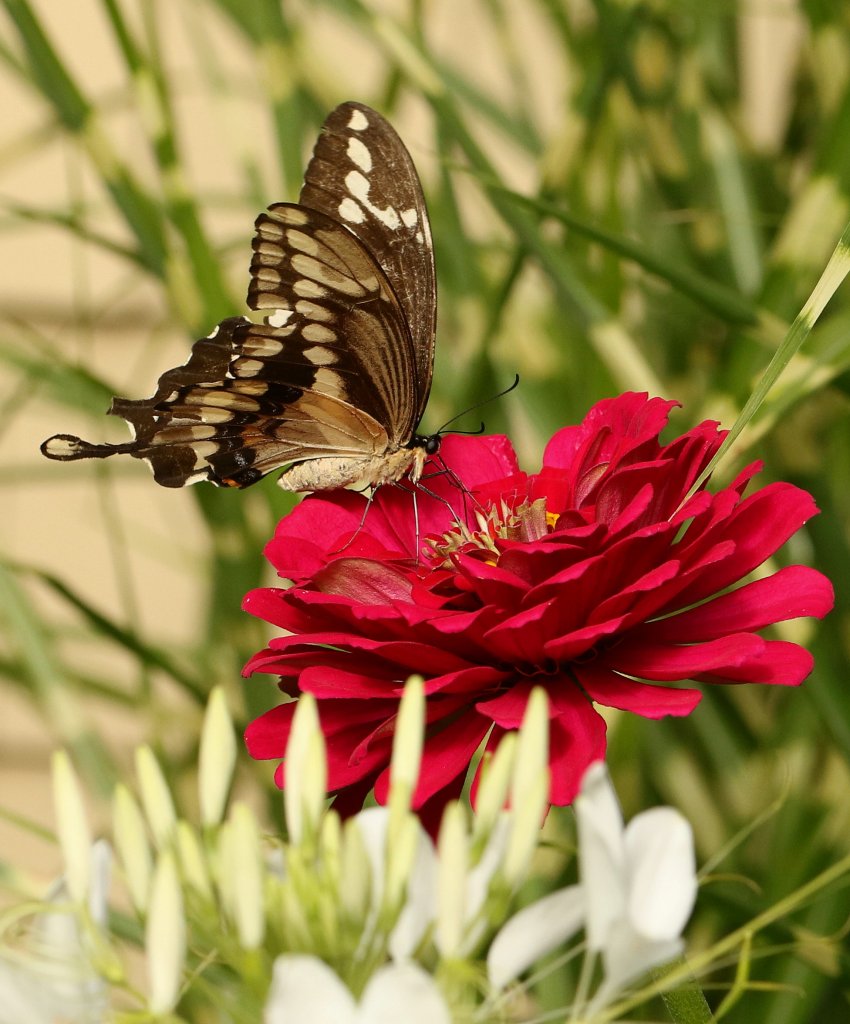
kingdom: Animalia
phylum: Arthropoda
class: Insecta
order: Lepidoptera
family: Papilionidae
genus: Papilio
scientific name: Papilio cresphontes
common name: Eastern Giant Swallowtail
